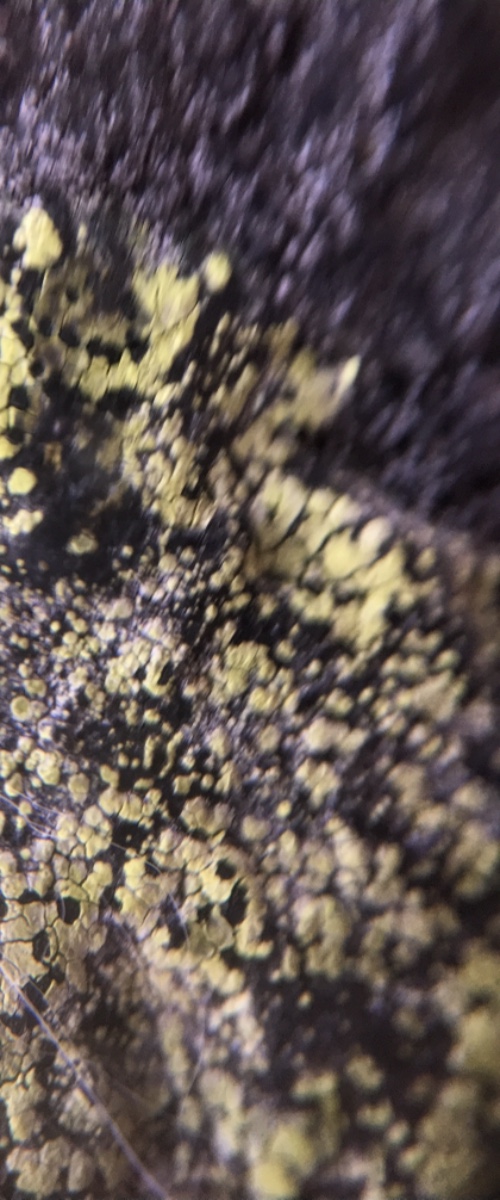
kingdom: Fungi
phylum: Ascomycota
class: Lecanoromycetes
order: Rhizocarpales
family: Rhizocarpaceae
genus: Rhizocarpon
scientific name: Rhizocarpon geographicum
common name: gulgrøn landkortlav
